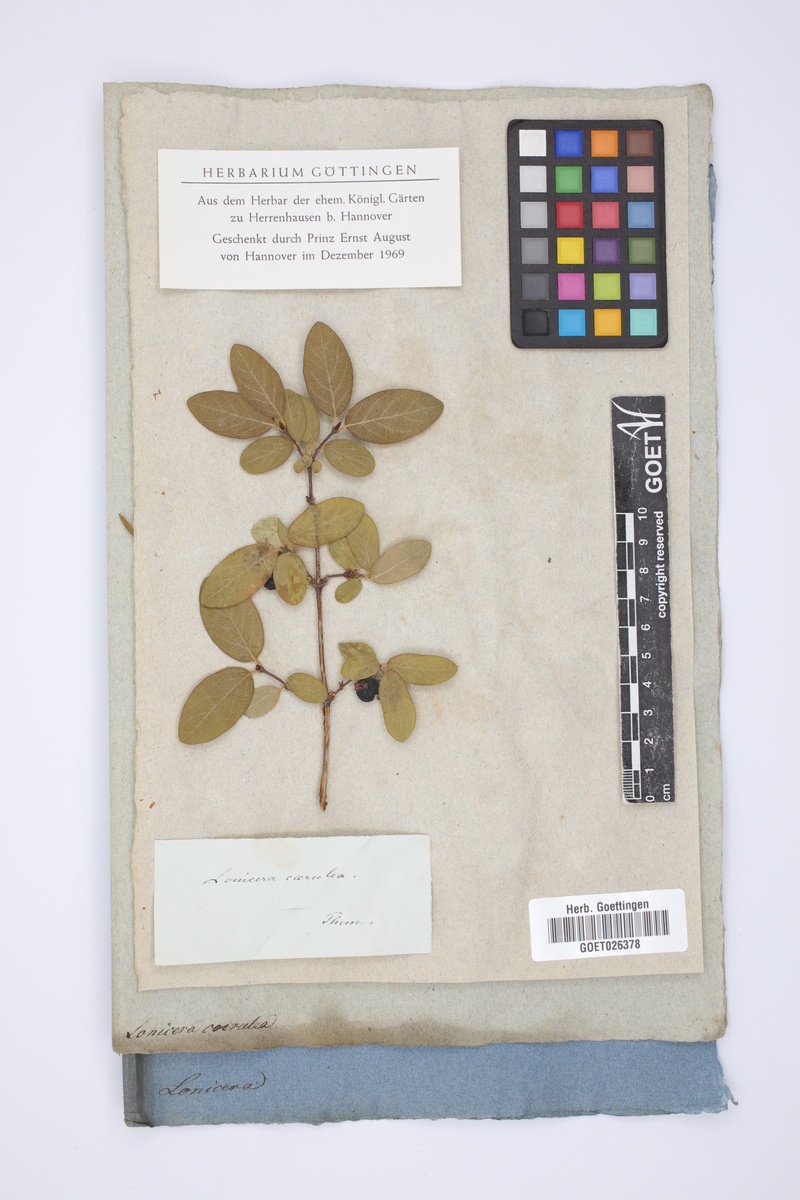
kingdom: Plantae
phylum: Tracheophyta
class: Magnoliopsida
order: Dipsacales
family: Caprifoliaceae
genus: Lonicera
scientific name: Lonicera caerulea
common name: Blue honeysuckle
